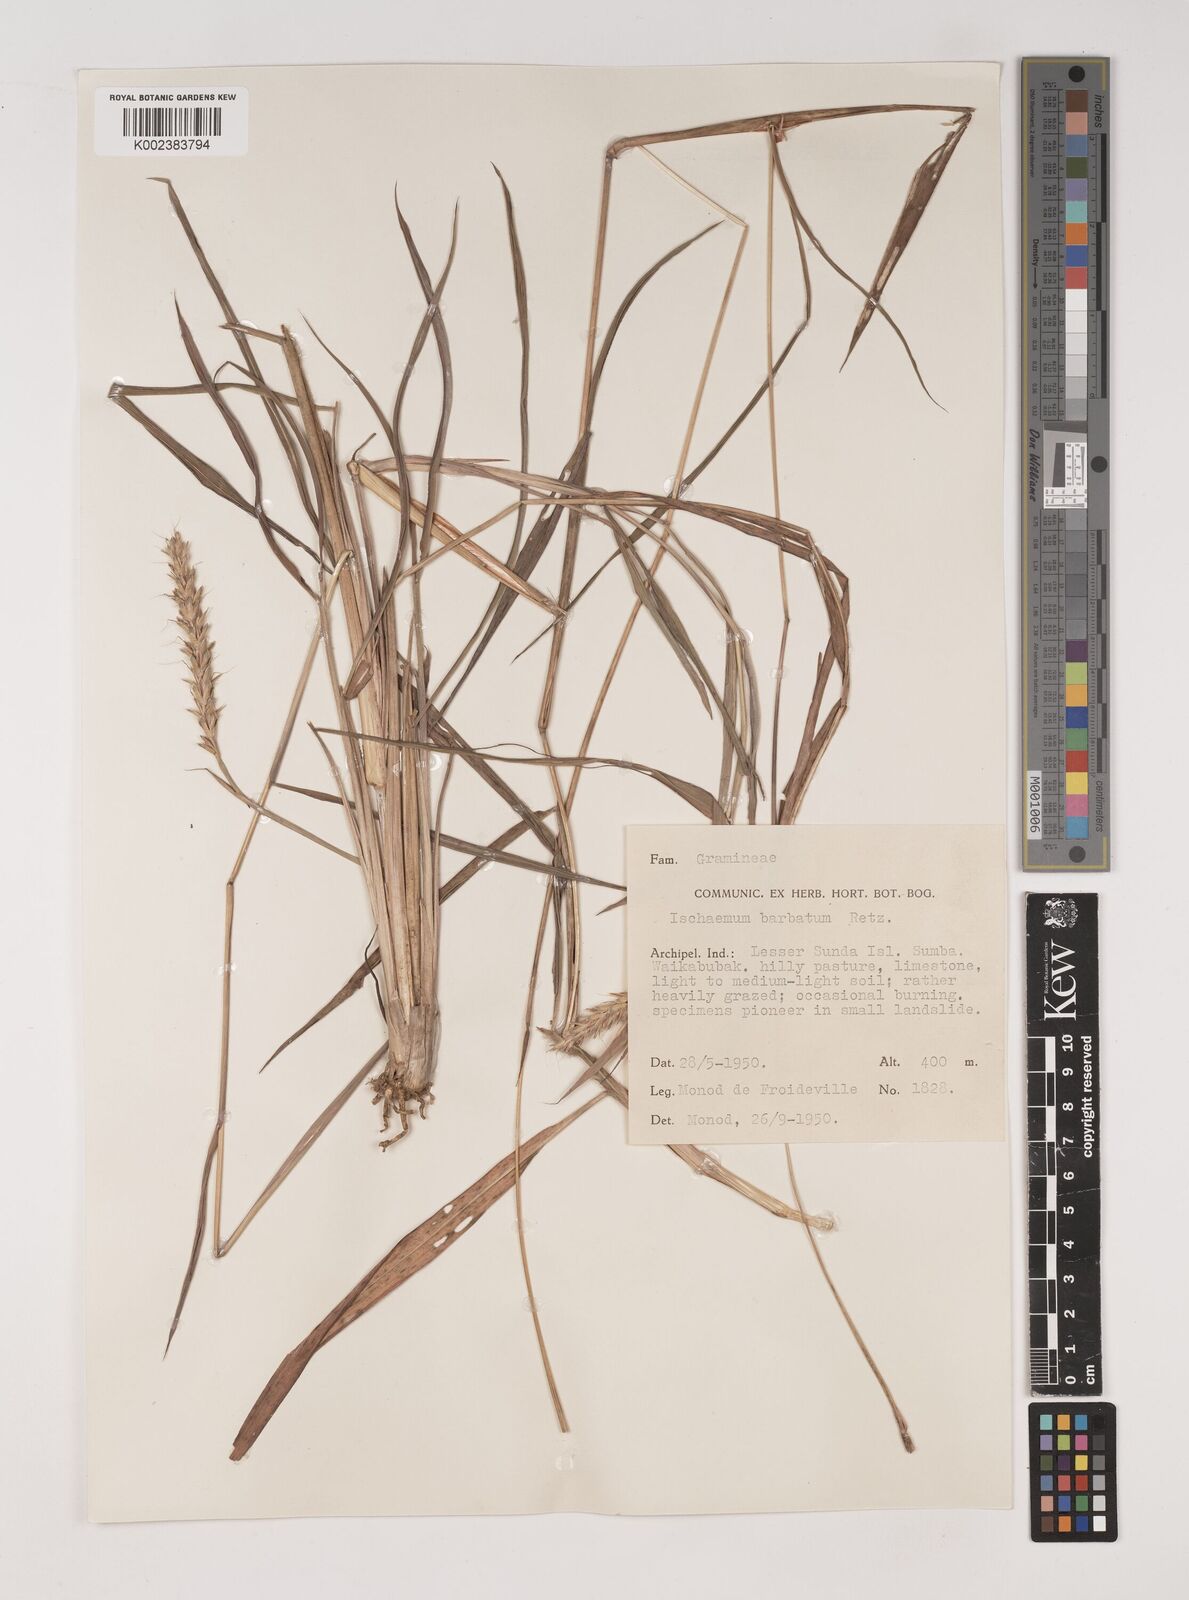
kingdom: Plantae
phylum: Tracheophyta
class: Liliopsida
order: Poales
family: Poaceae
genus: Ischaemum
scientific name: Ischaemum barbatum
